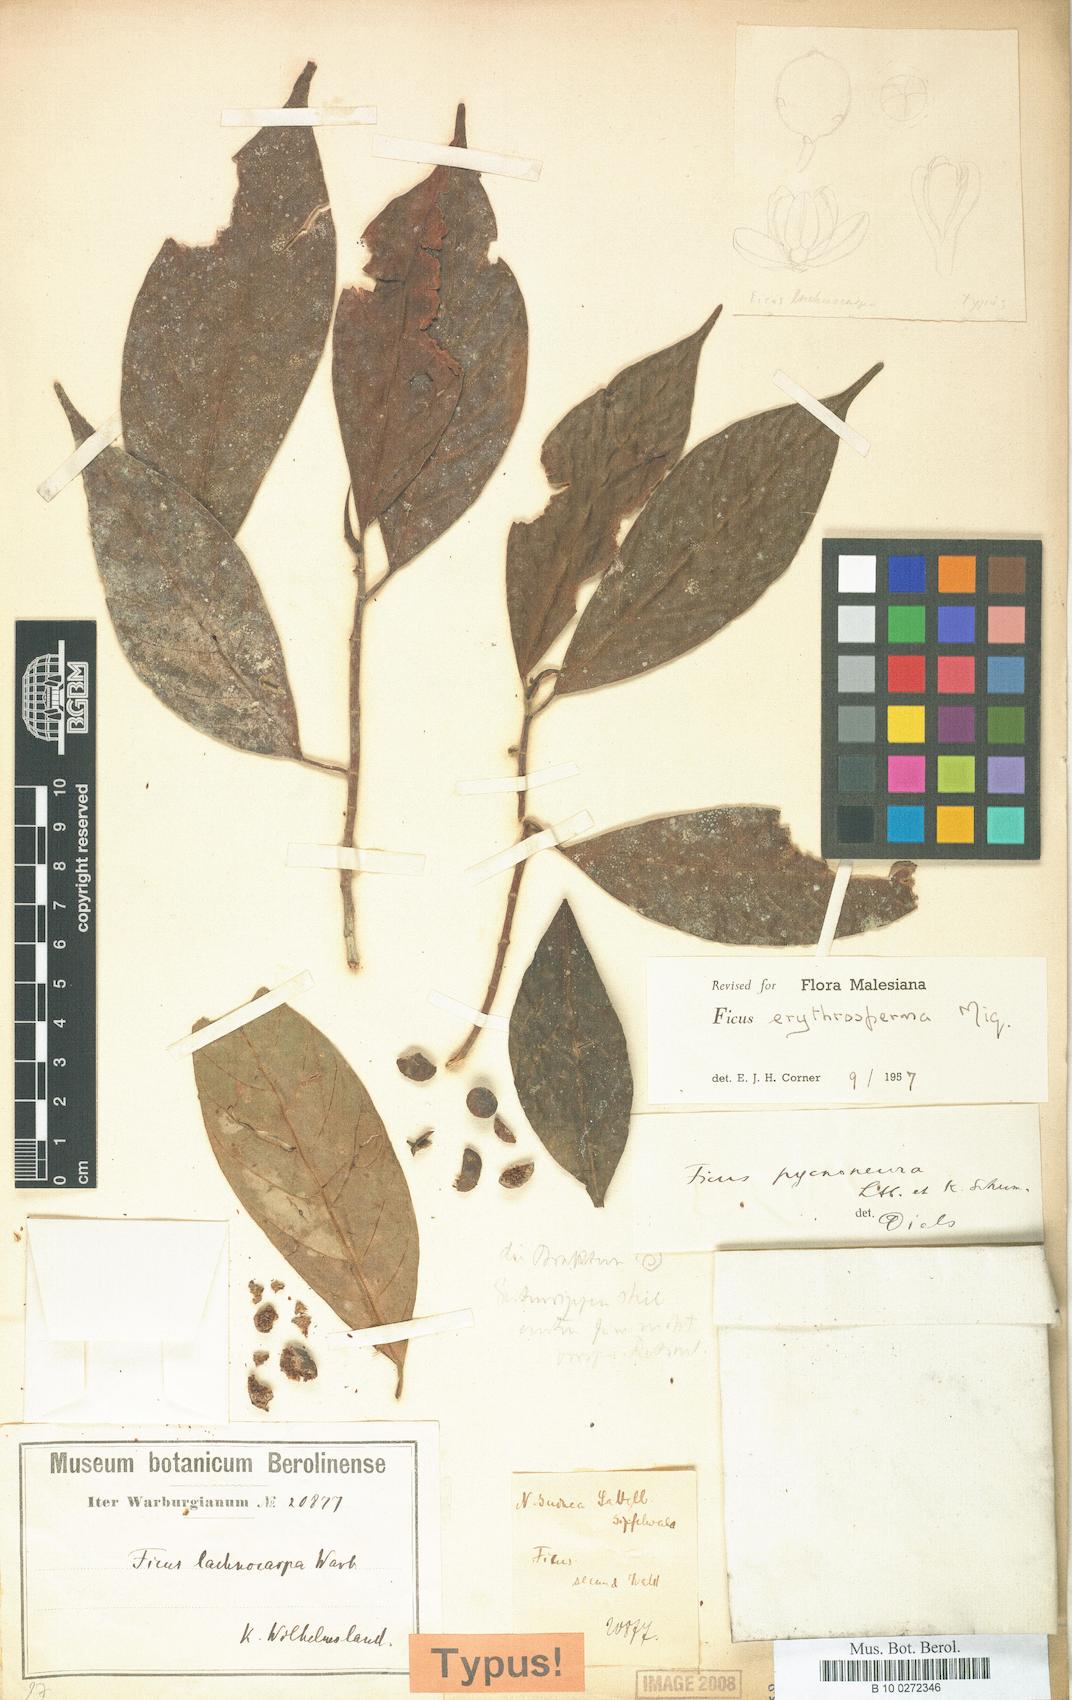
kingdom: Plantae
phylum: Tracheophyta
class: Magnoliopsida
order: Rosales
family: Moraceae
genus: Ficus
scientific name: Ficus erythrosperma
